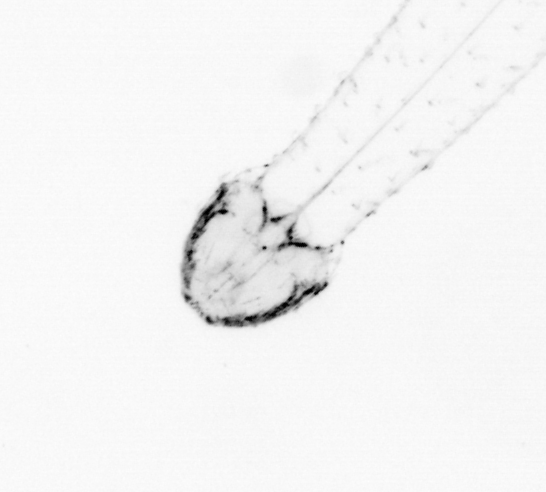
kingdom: Animalia
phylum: Chaetognatha
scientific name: Chaetognatha
